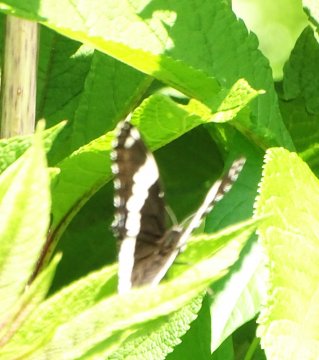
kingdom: Animalia
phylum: Arthropoda
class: Insecta
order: Lepidoptera
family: Nymphalidae
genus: Limenitis
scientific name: Limenitis arthemis
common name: Red-spotted Admiral
